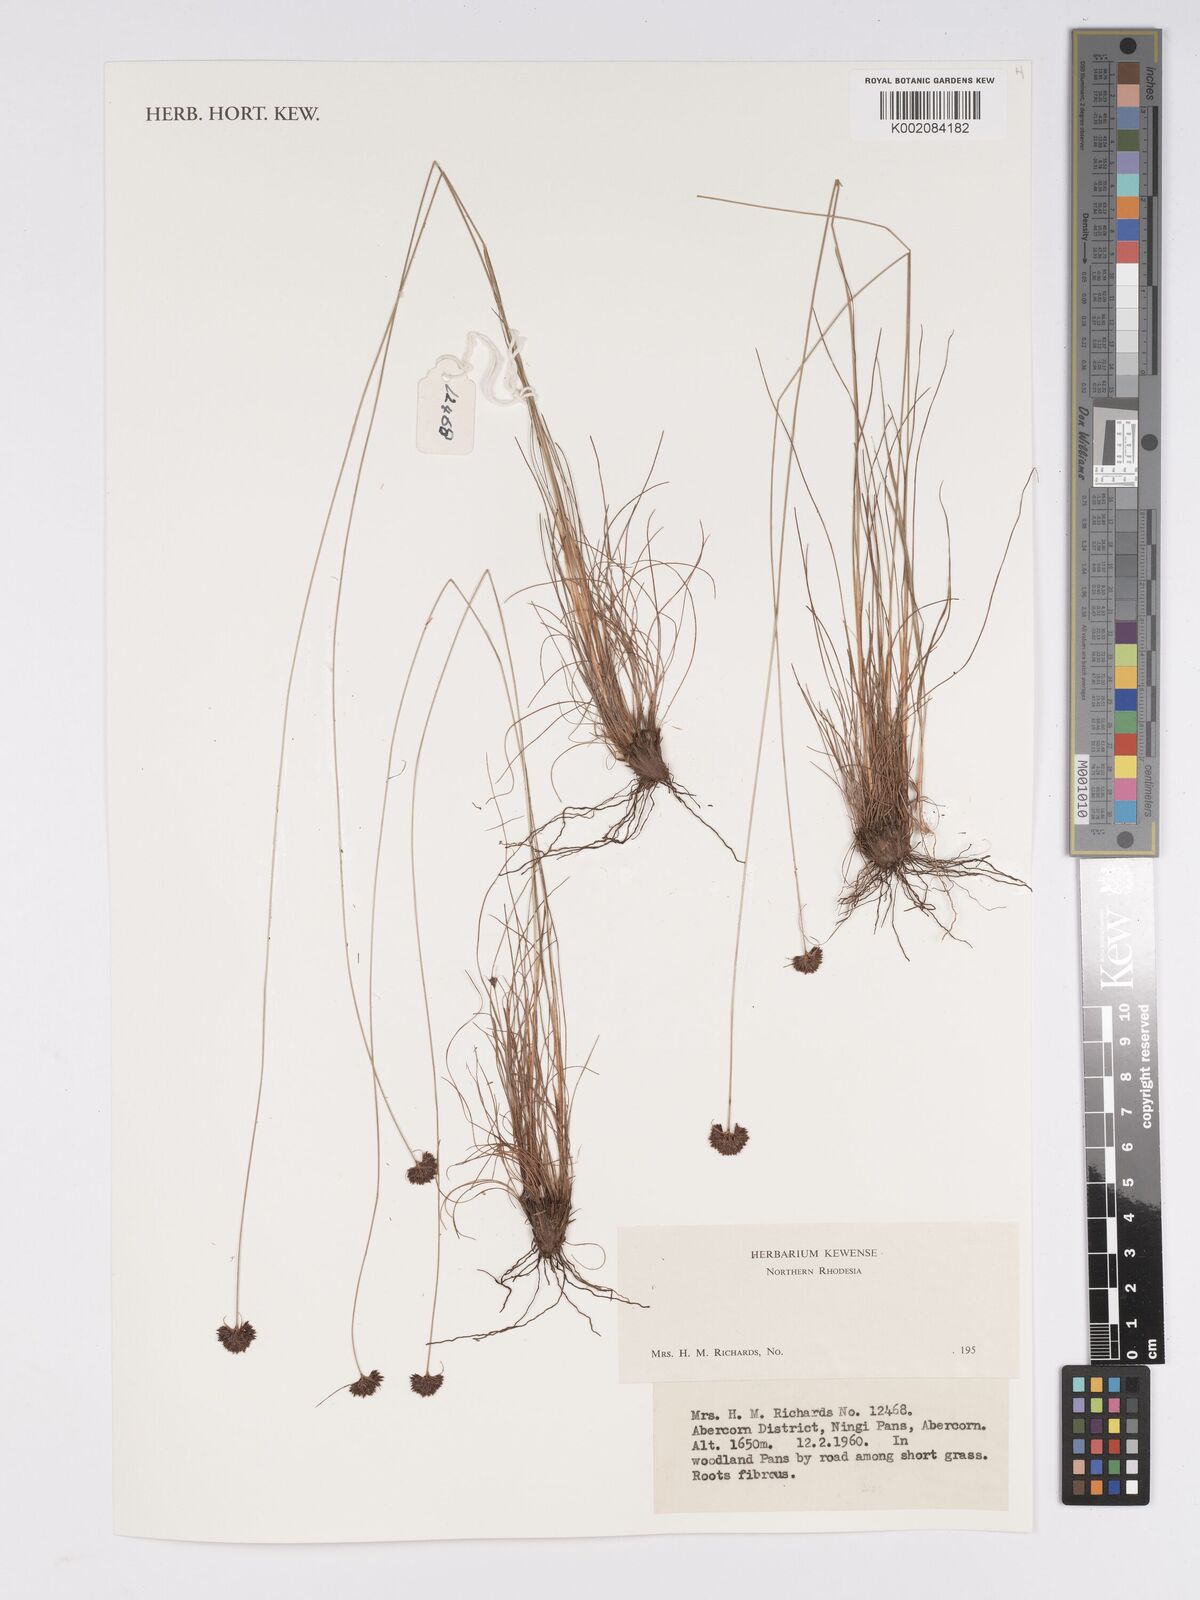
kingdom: Plantae
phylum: Tracheophyta
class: Liliopsida
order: Poales
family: Cyperaceae
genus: Bulbostylis
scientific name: Bulbostylis
